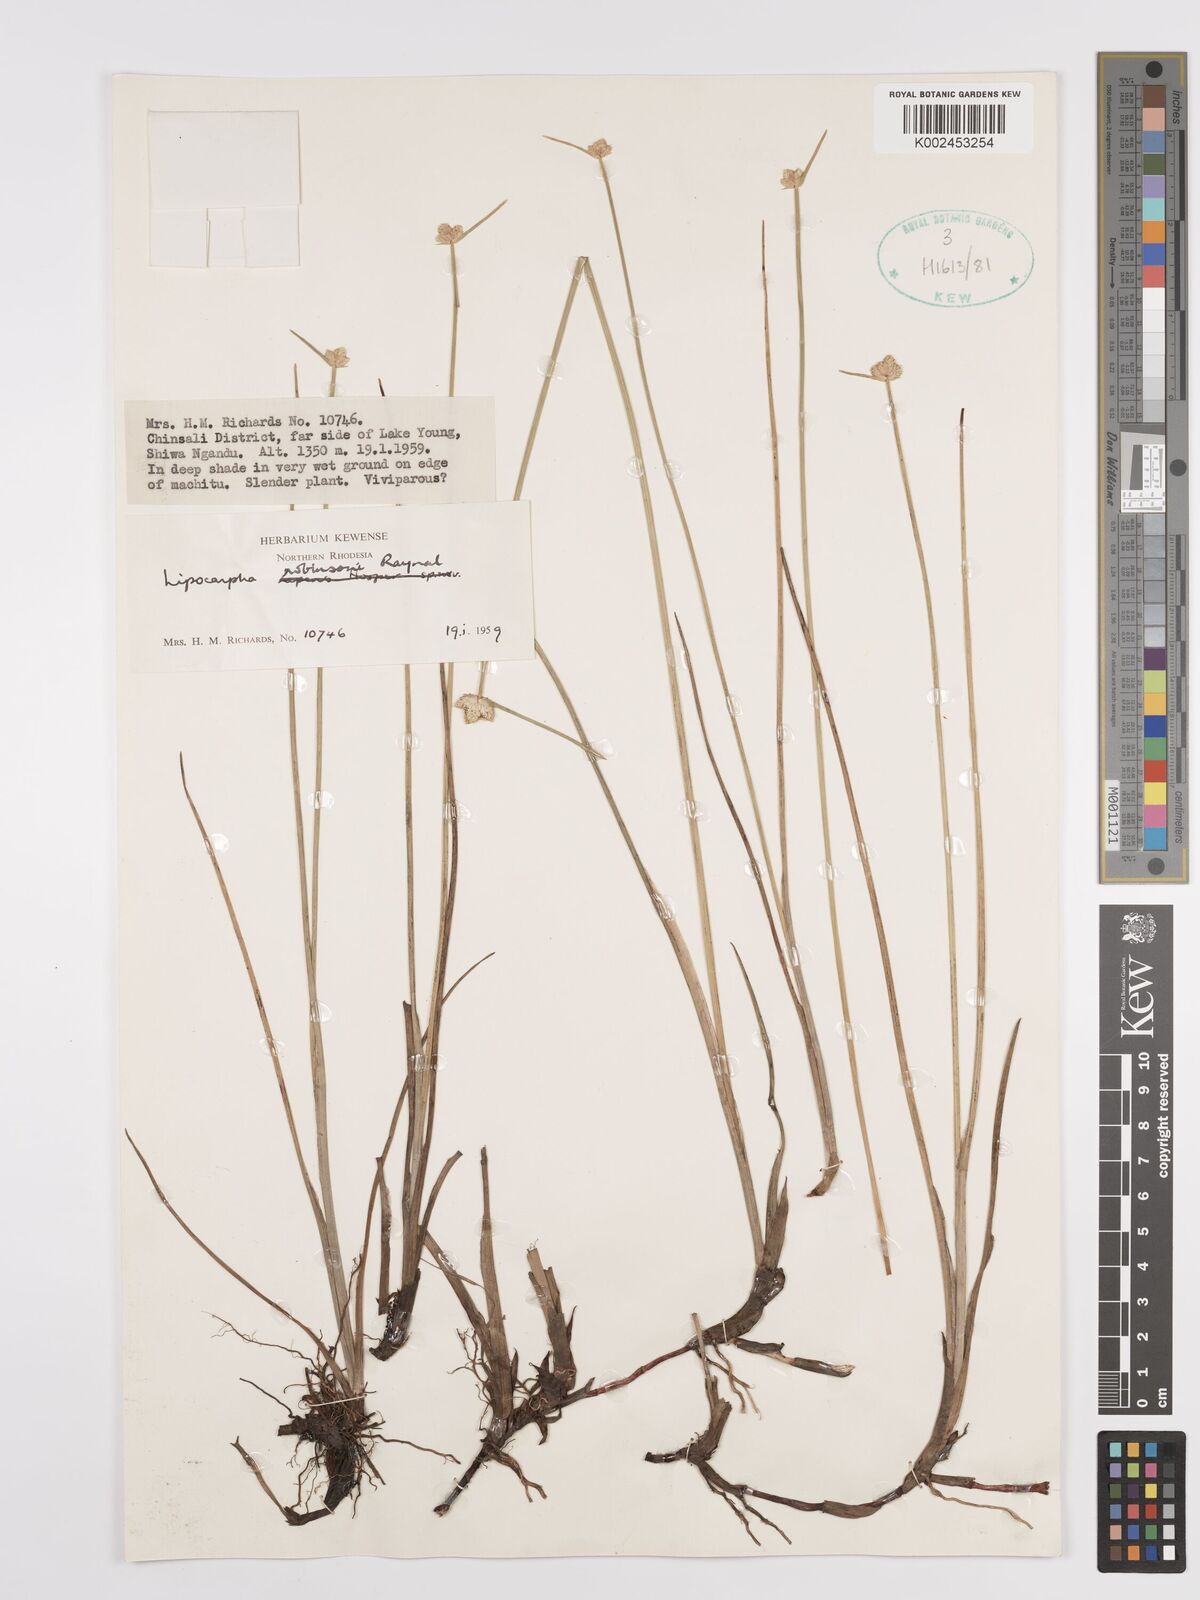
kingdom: Plantae
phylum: Tracheophyta
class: Liliopsida
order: Poales
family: Cyperaceae
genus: Cyperus
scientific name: Cyperus tenuiculmis
